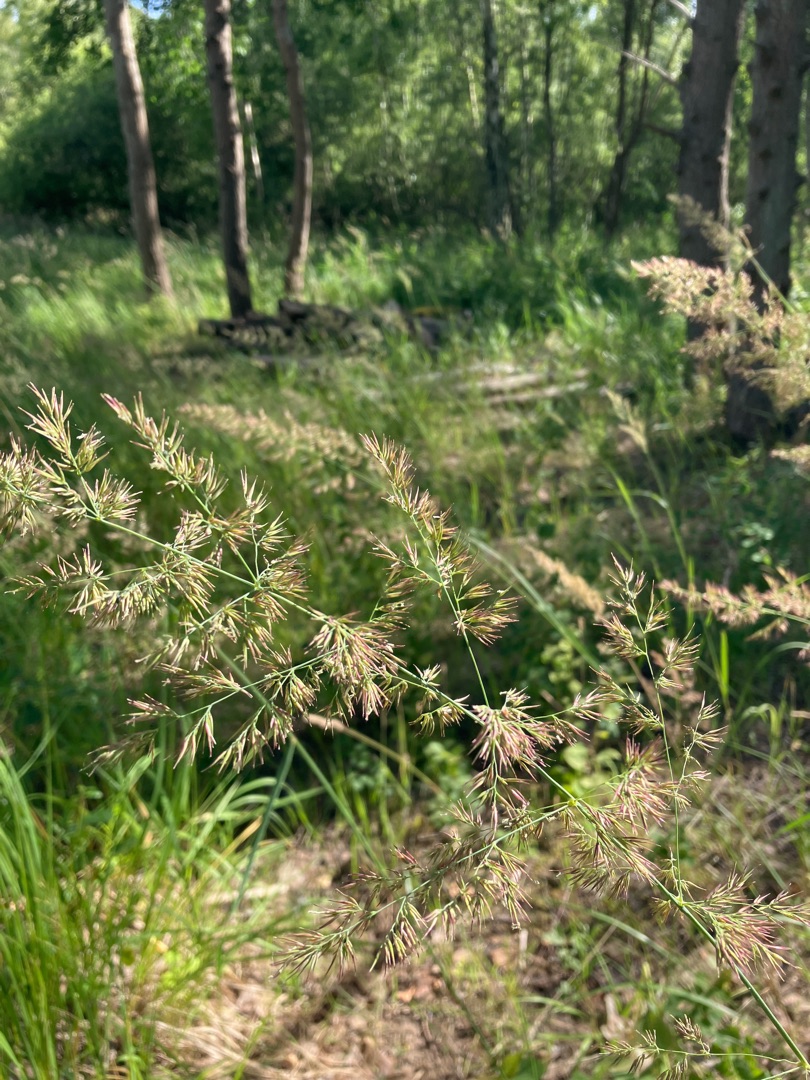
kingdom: Plantae
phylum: Tracheophyta
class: Liliopsida
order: Poales
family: Poaceae
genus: Calamagrostis
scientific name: Calamagrostis epigejos
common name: Bjerg-rørhvene
